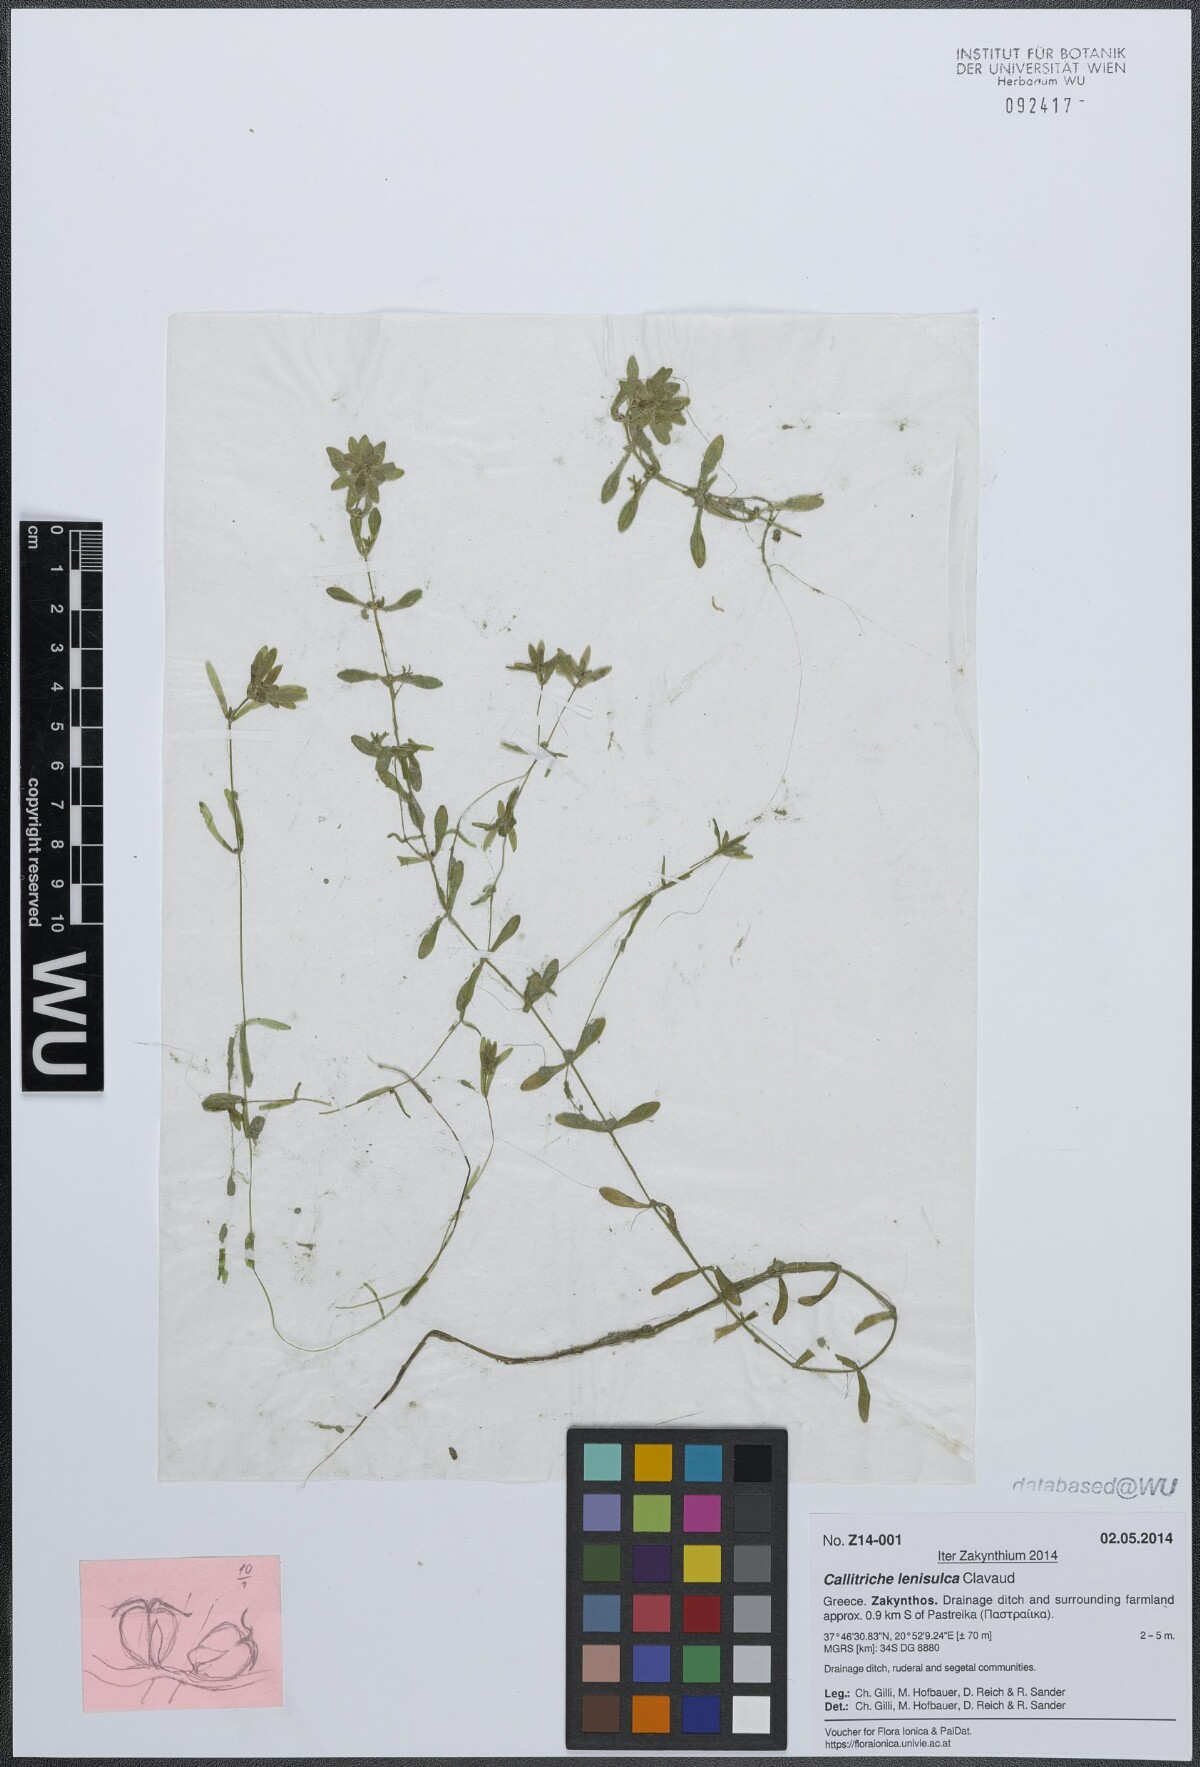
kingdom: Plantae
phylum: Tracheophyta
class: Magnoliopsida
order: Lamiales
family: Plantaginaceae
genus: Callitriche
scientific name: Callitriche lenisulca
